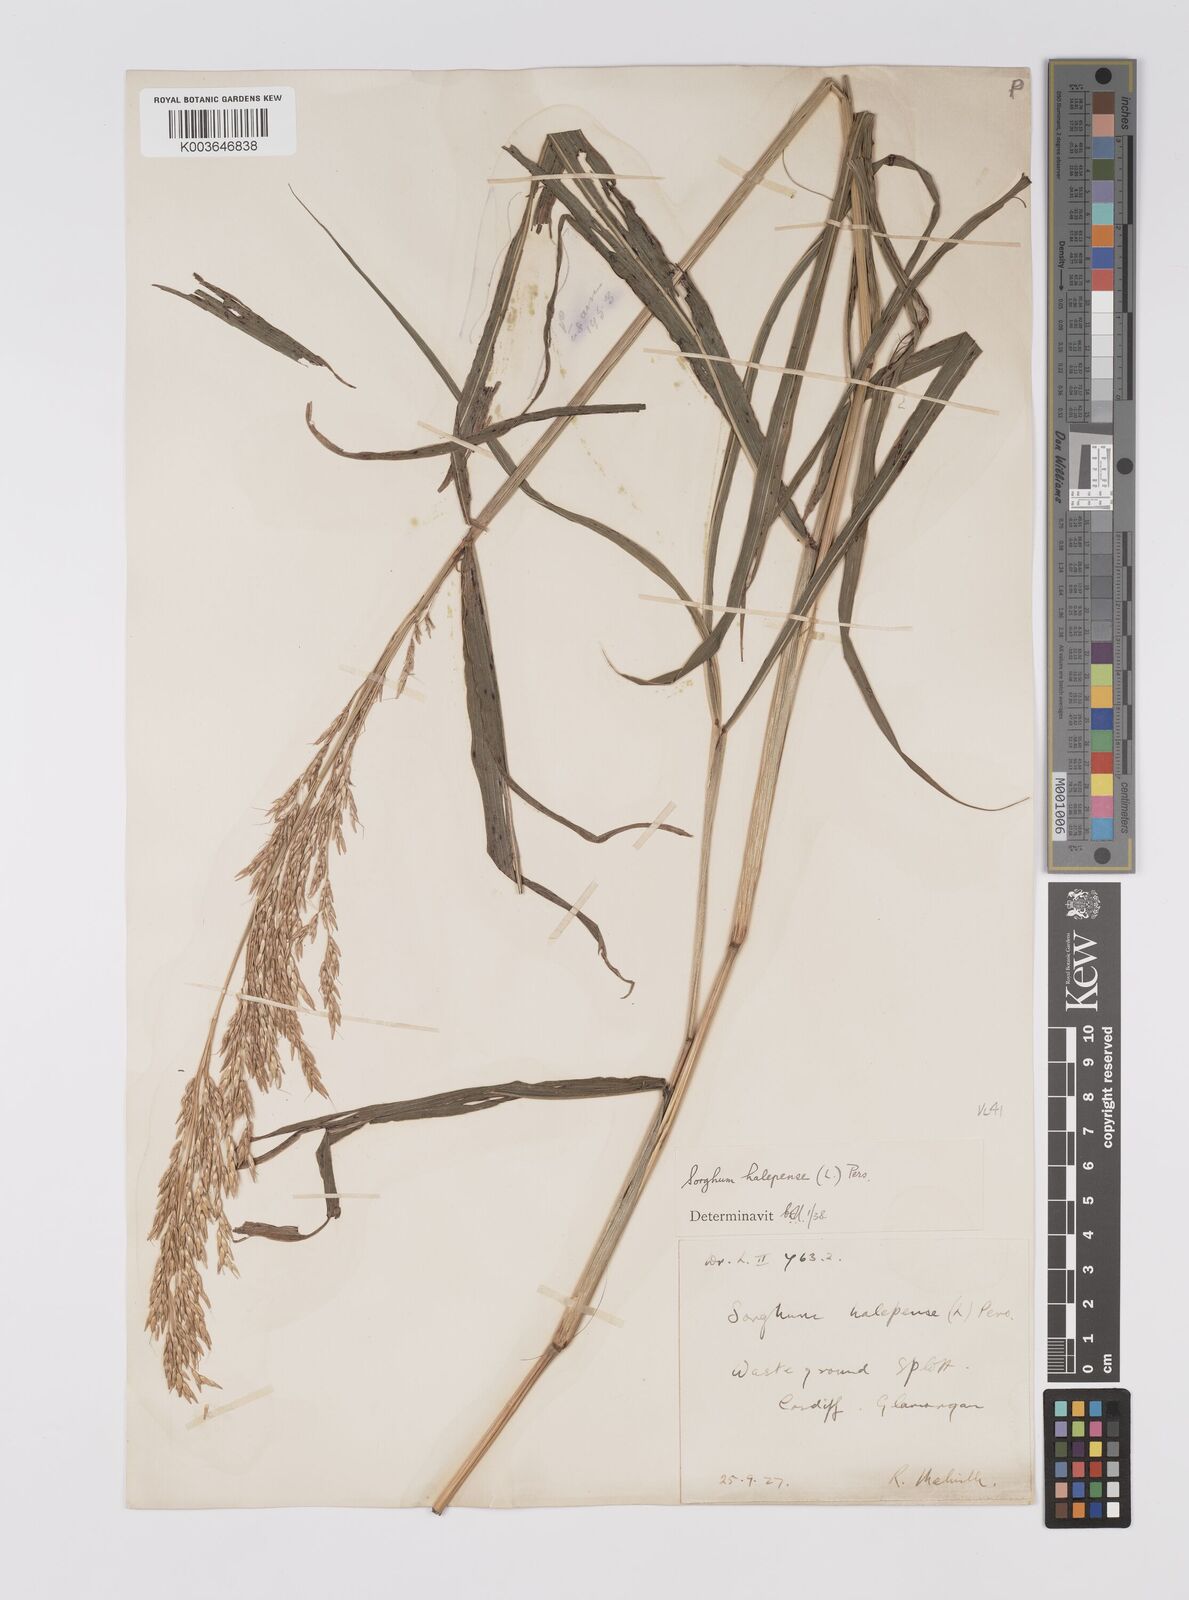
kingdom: Plantae
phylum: Tracheophyta
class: Liliopsida
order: Poales
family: Poaceae
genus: Sorghum
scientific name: Sorghum halepense
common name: Johnson-grass
